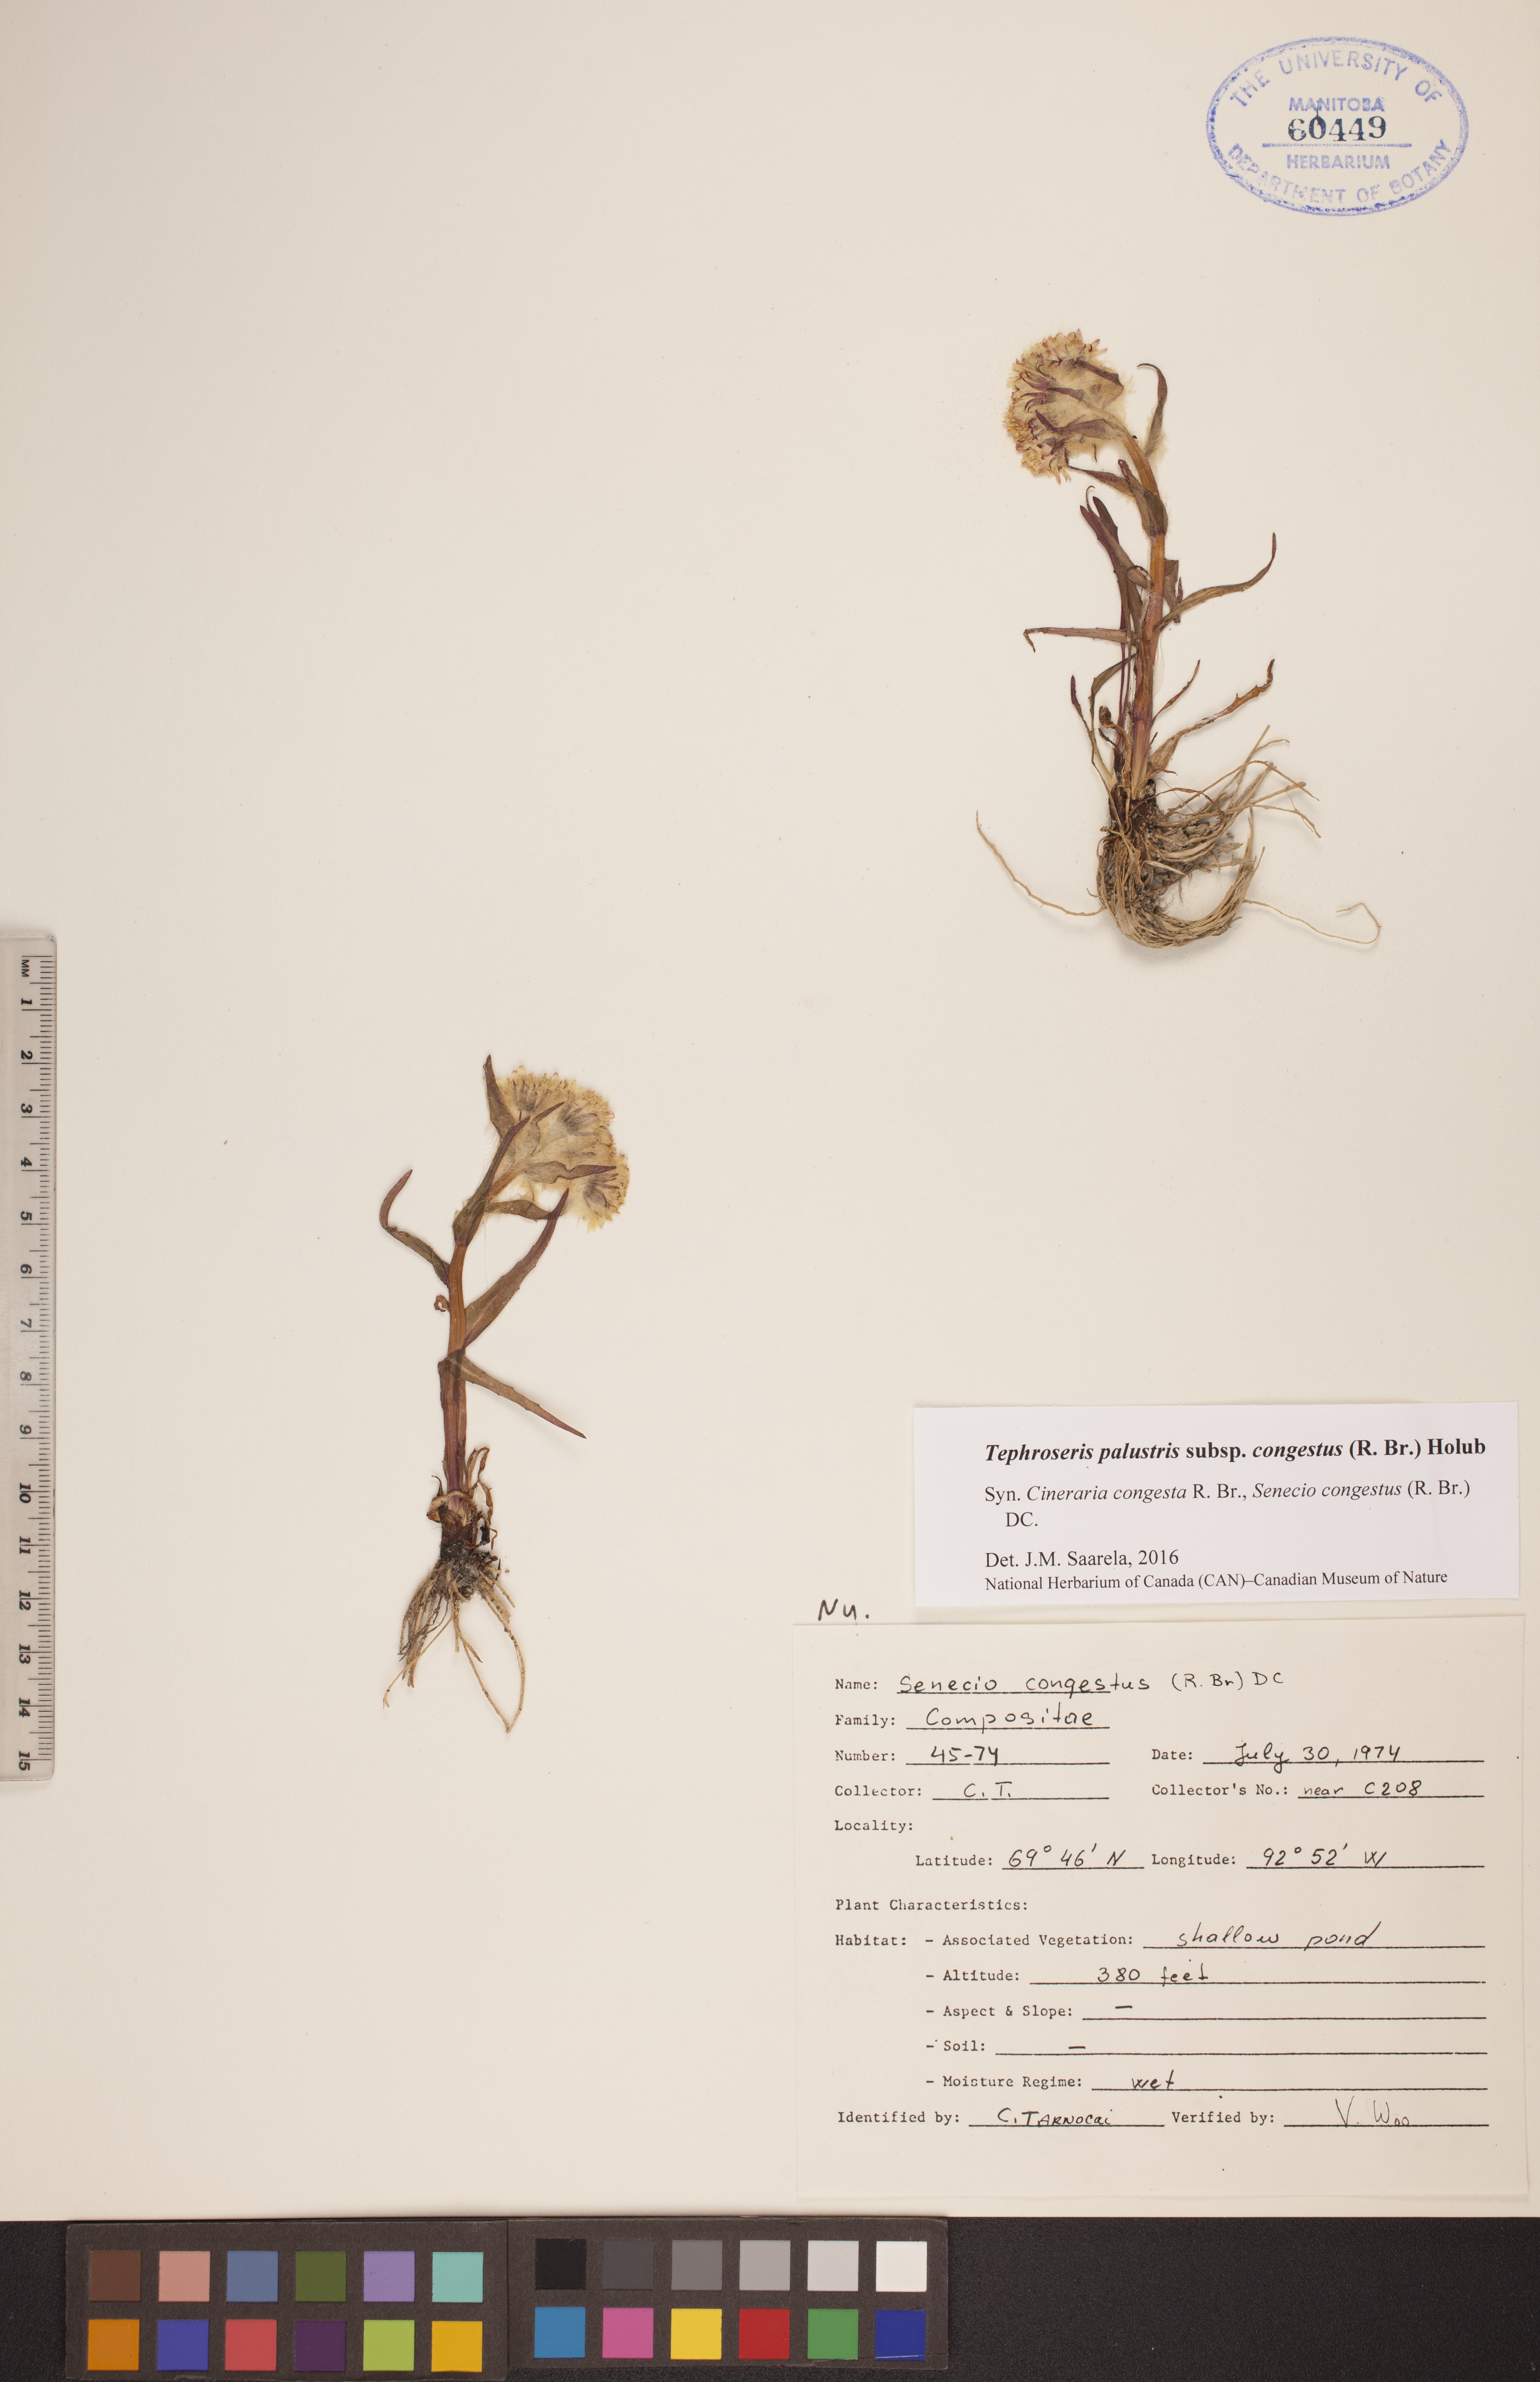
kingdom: Plantae
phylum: Tracheophyta
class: Magnoliopsida
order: Asterales
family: Asteraceae
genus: Tephroseris
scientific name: Tephroseris palustris
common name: Marsh fleawort
